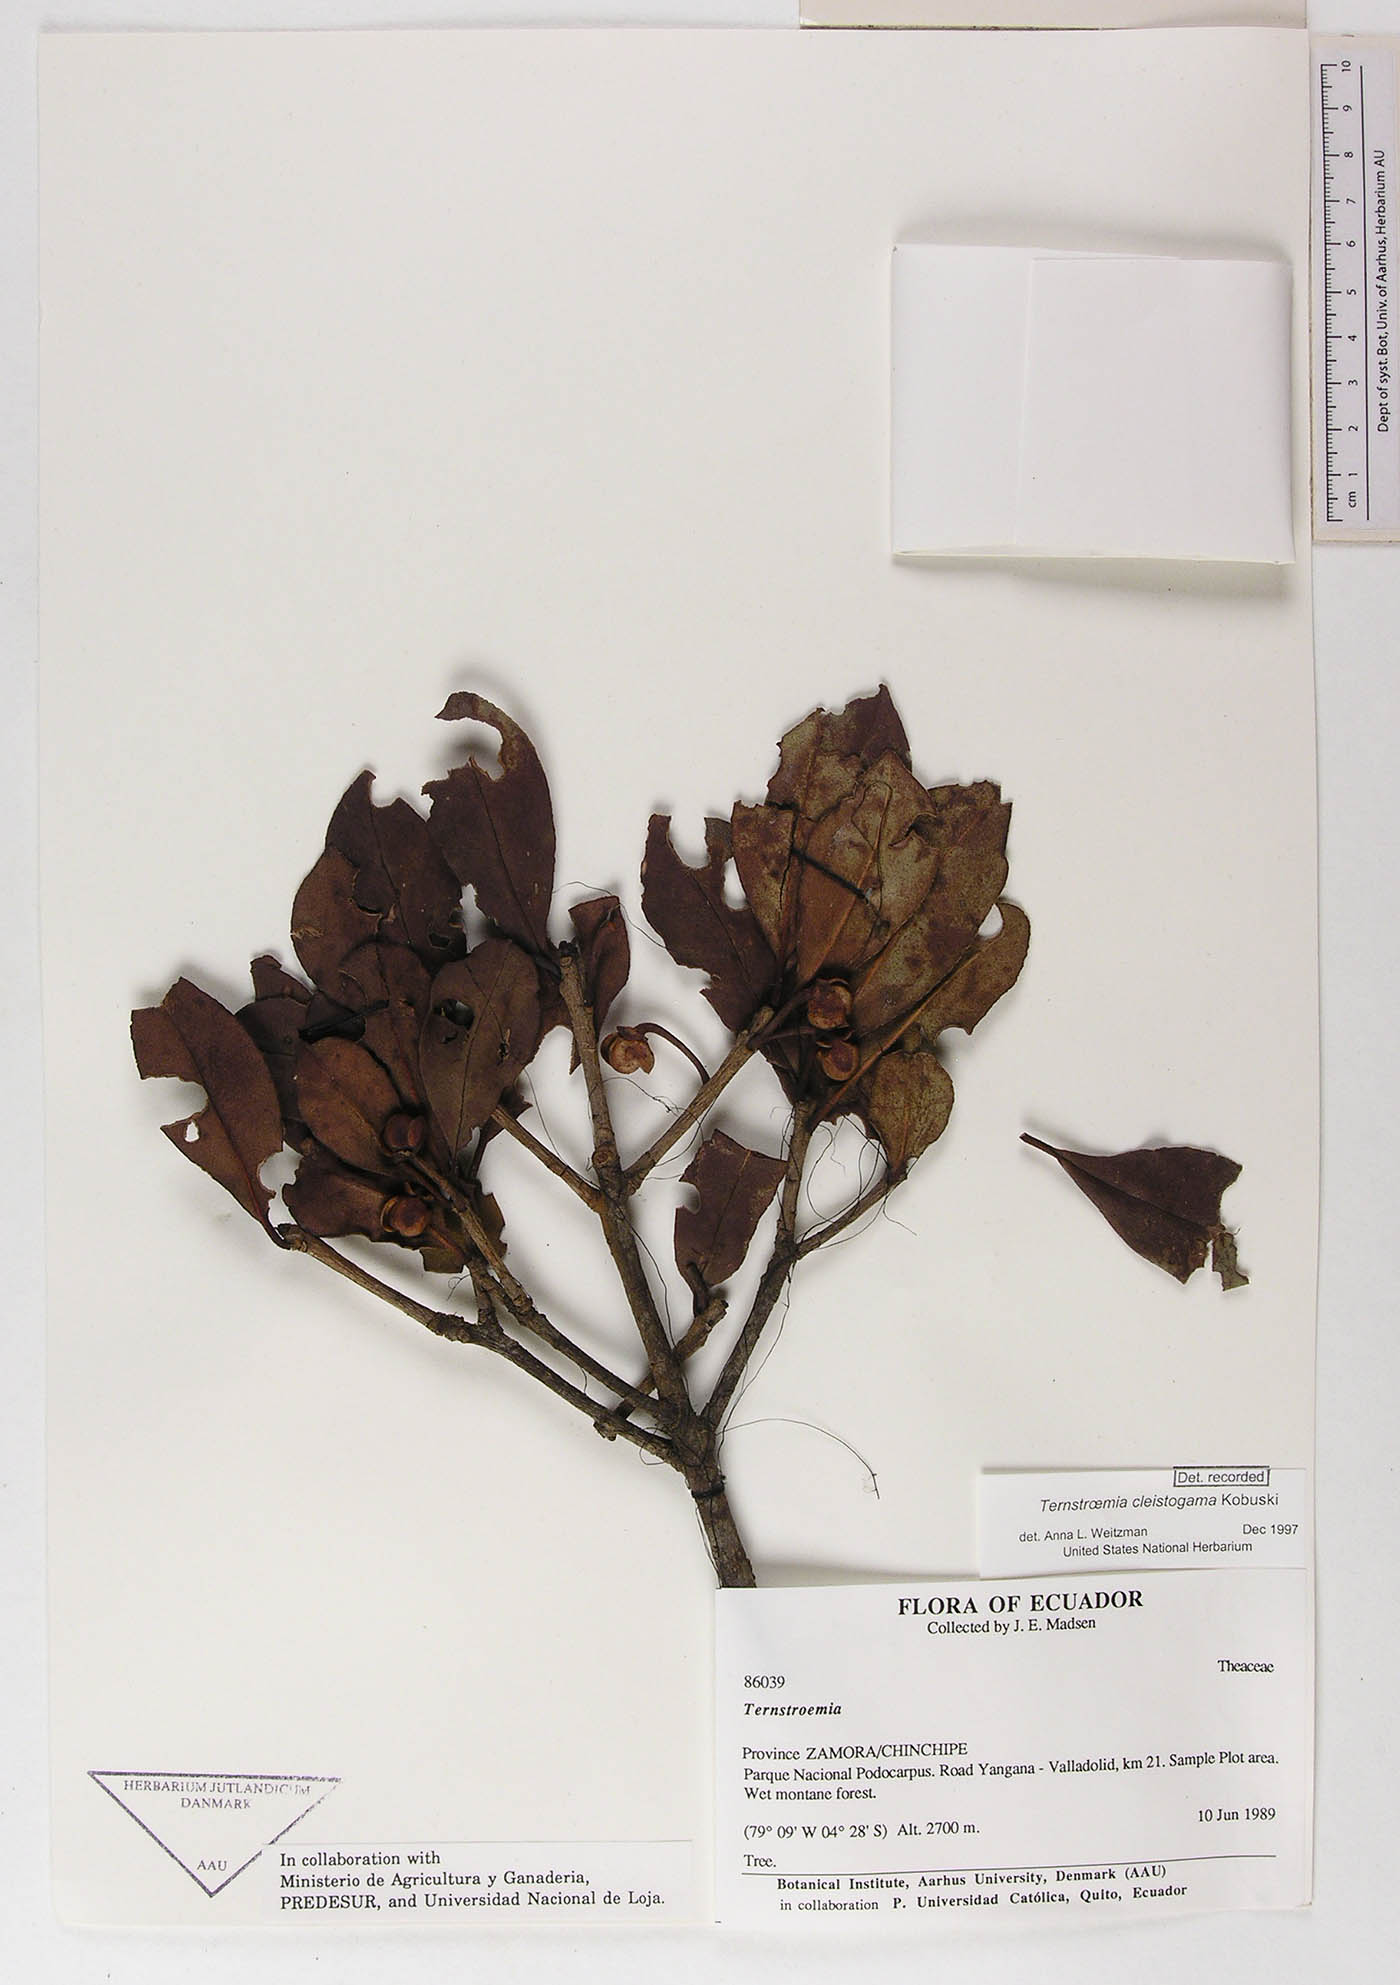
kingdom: Plantae
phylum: Tracheophyta
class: Magnoliopsida
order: Ericales
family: Pentaphylacaceae
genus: Ternstroemia
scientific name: Ternstroemia cleistogama
